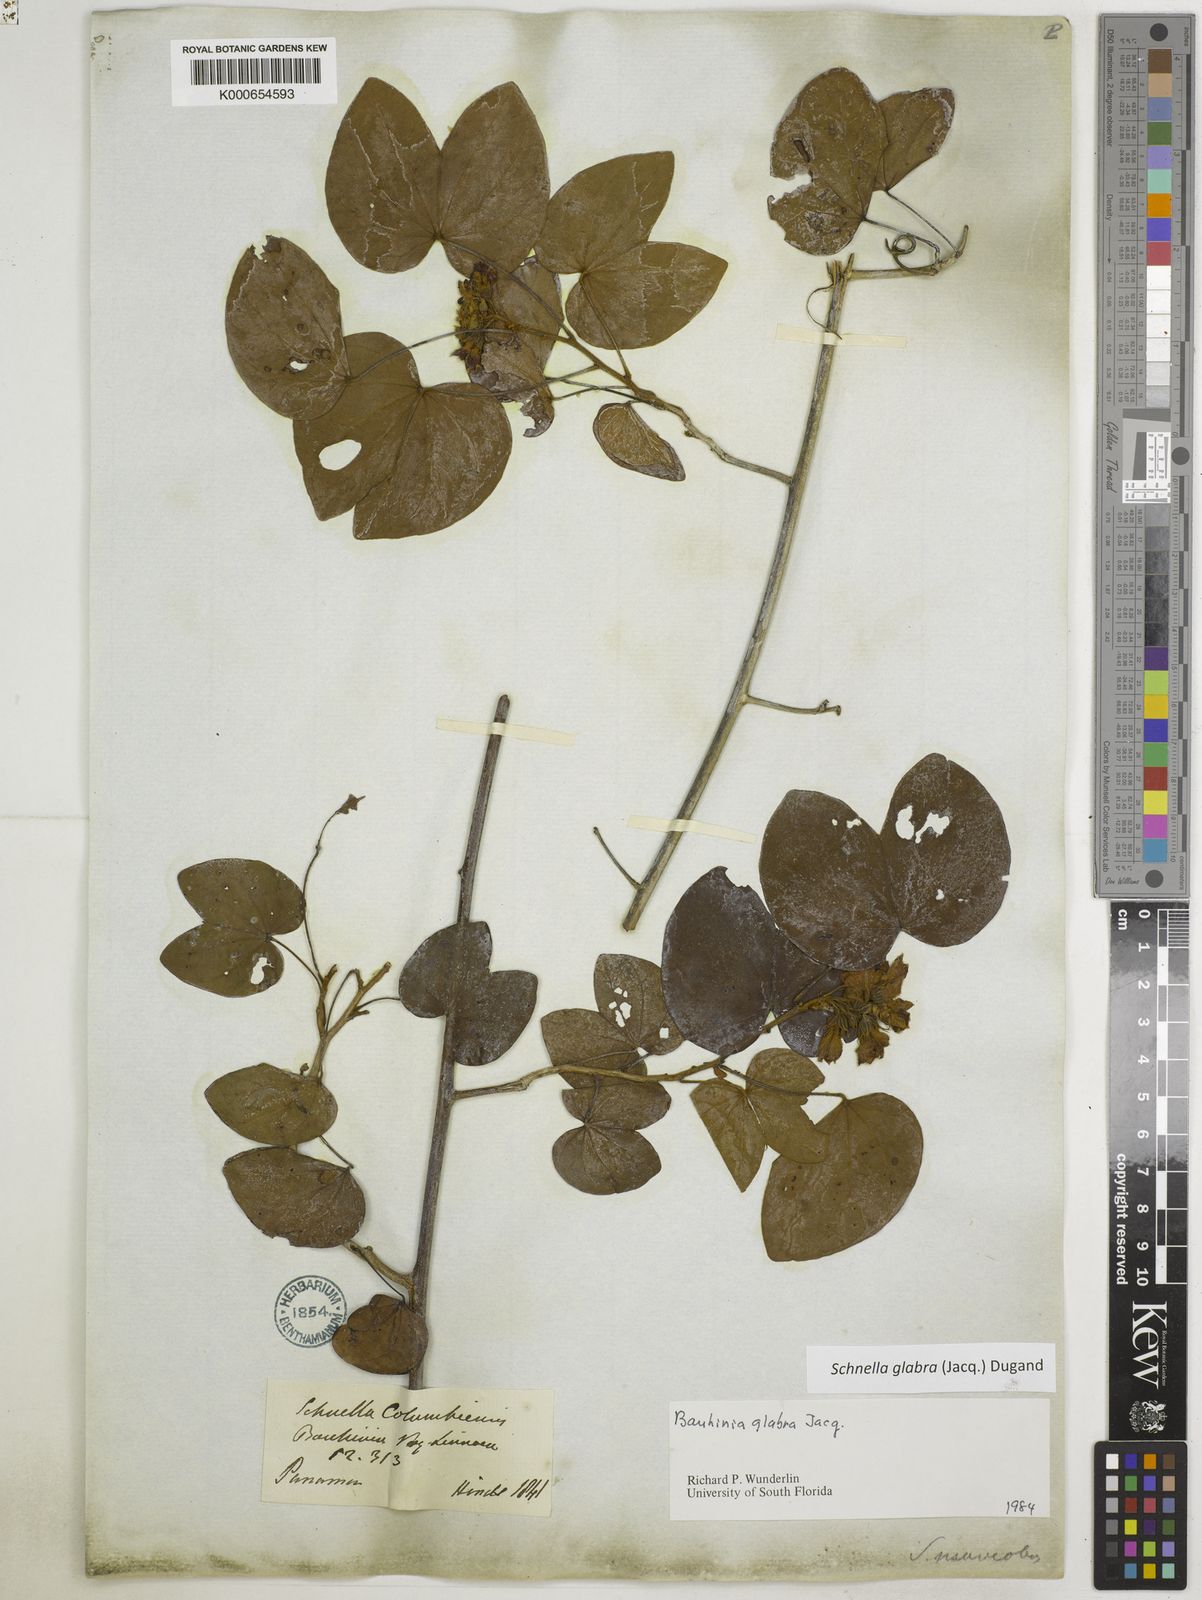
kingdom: Plantae
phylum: Tracheophyta
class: Magnoliopsida
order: Fabales
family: Fabaceae
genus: Schnella
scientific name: Schnella glabra
